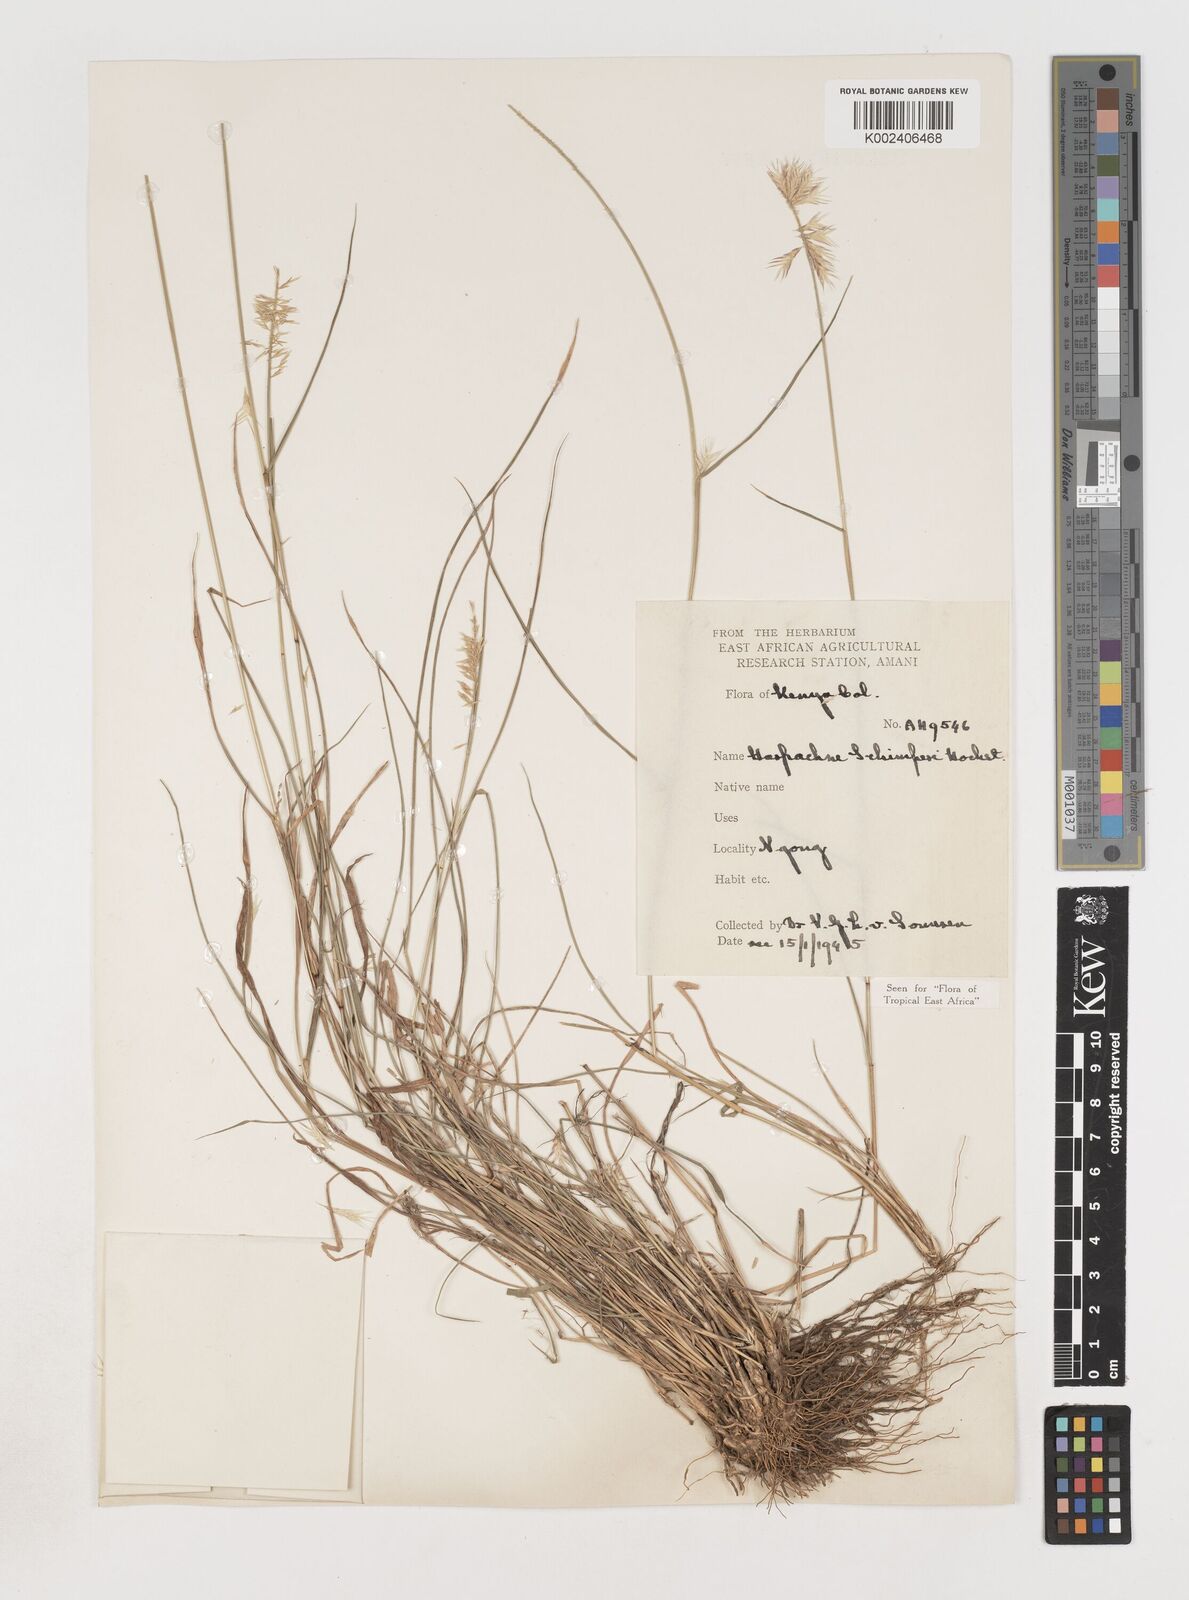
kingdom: Plantae
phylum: Tracheophyta
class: Liliopsida
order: Poales
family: Poaceae
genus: Harpachne
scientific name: Harpachne schimperi
